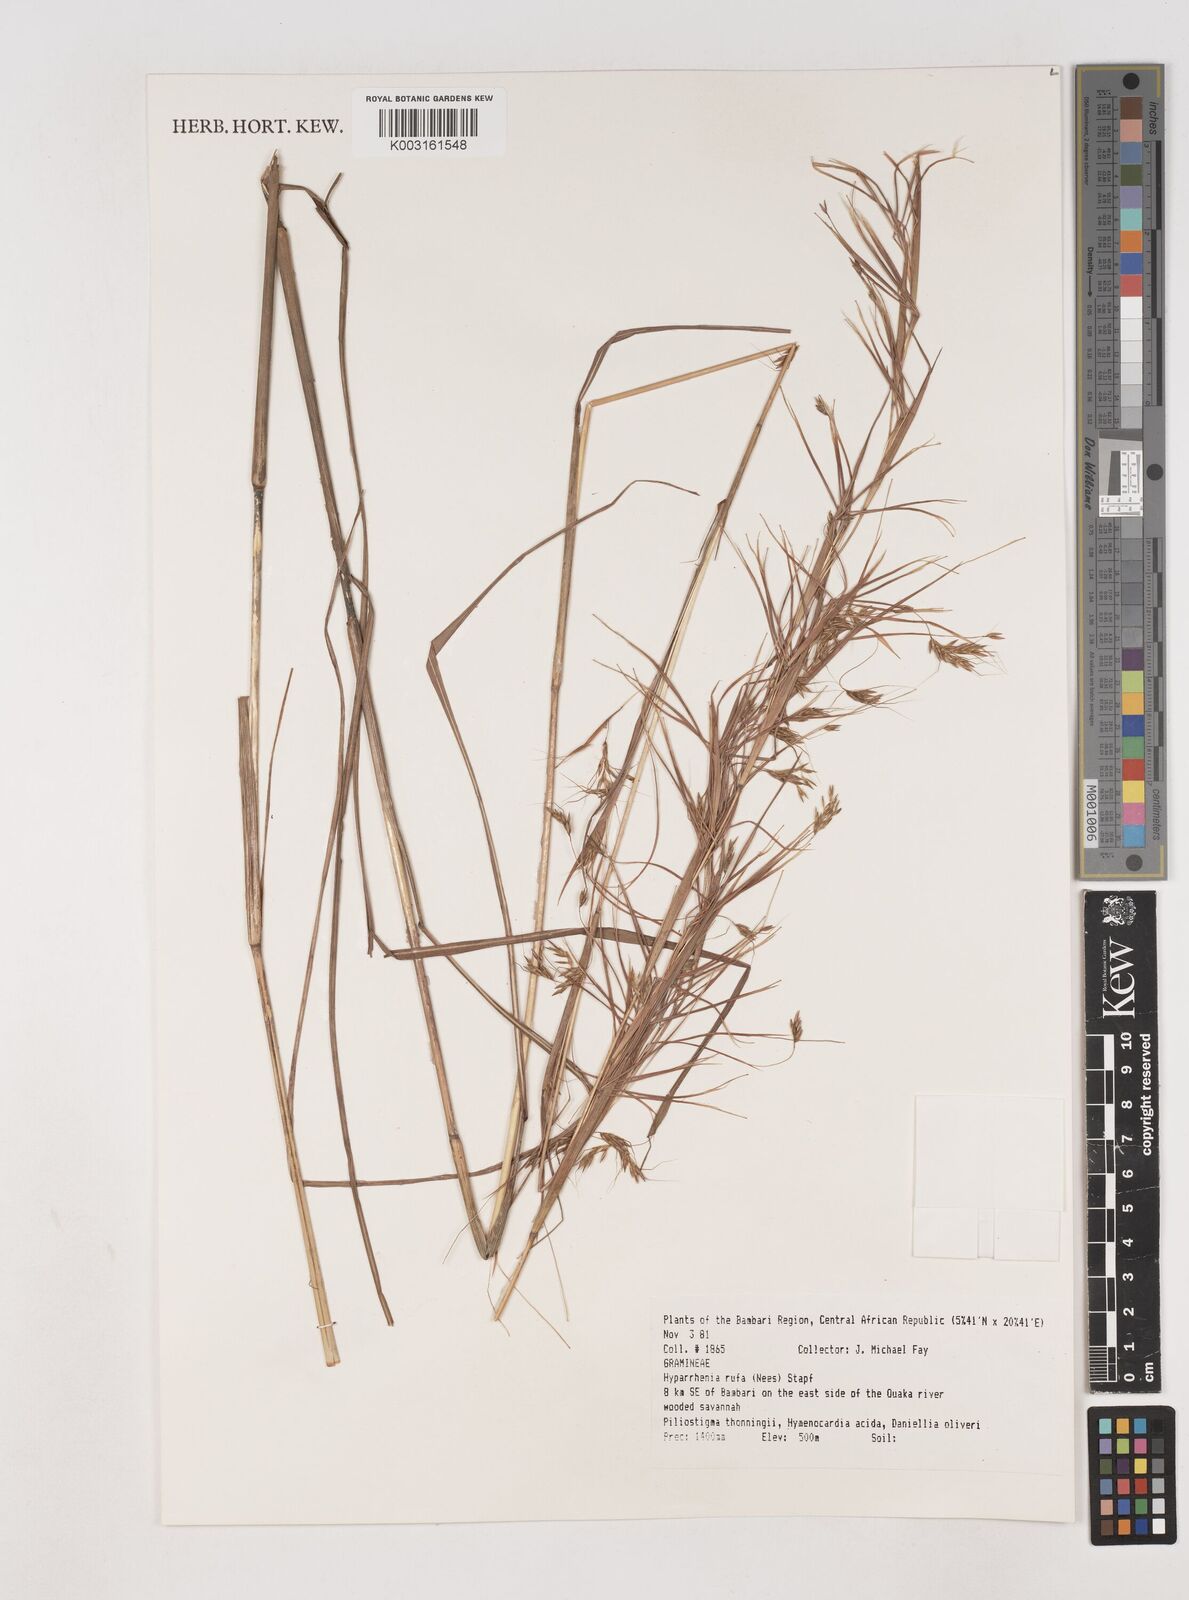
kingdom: Plantae
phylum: Tracheophyta
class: Liliopsida
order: Poales
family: Poaceae
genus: Hyparrhenia
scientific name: Hyparrhenia rufa
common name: Jaraguagrass
